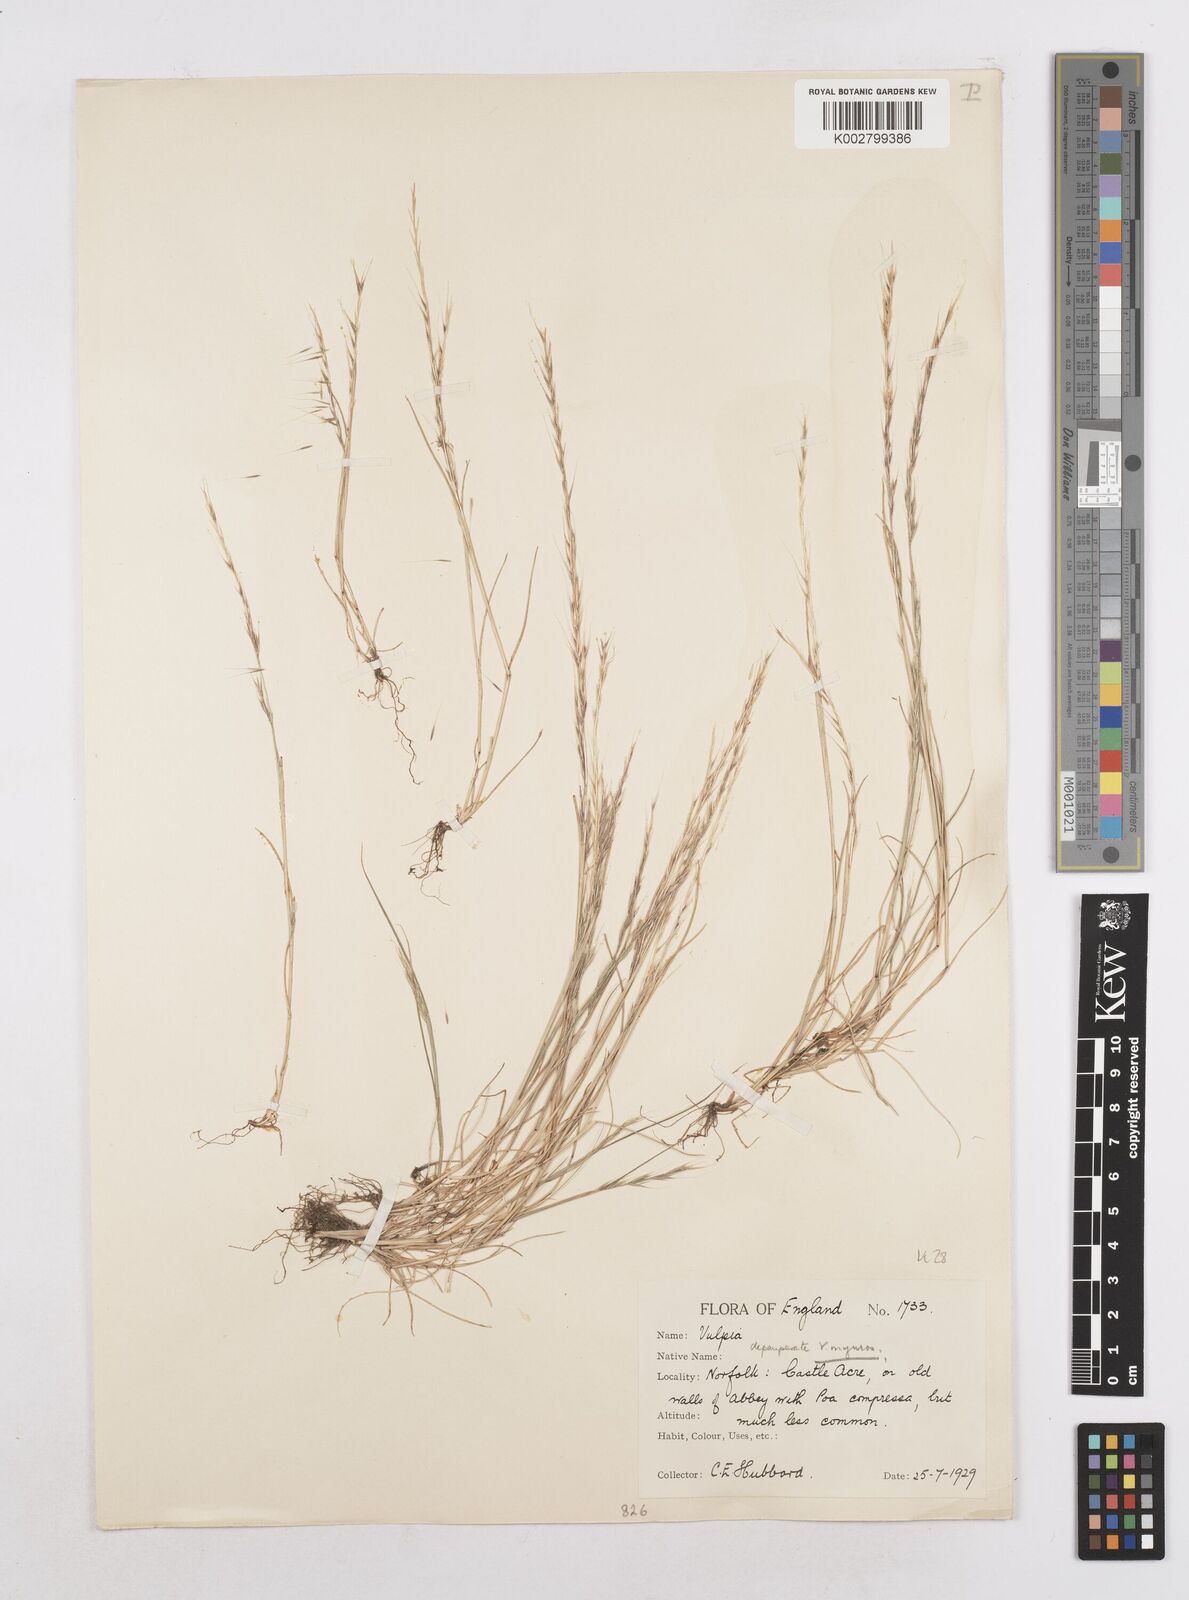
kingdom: Plantae
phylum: Tracheophyta
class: Liliopsida
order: Poales
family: Poaceae
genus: Festuca
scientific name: Festuca myuros
